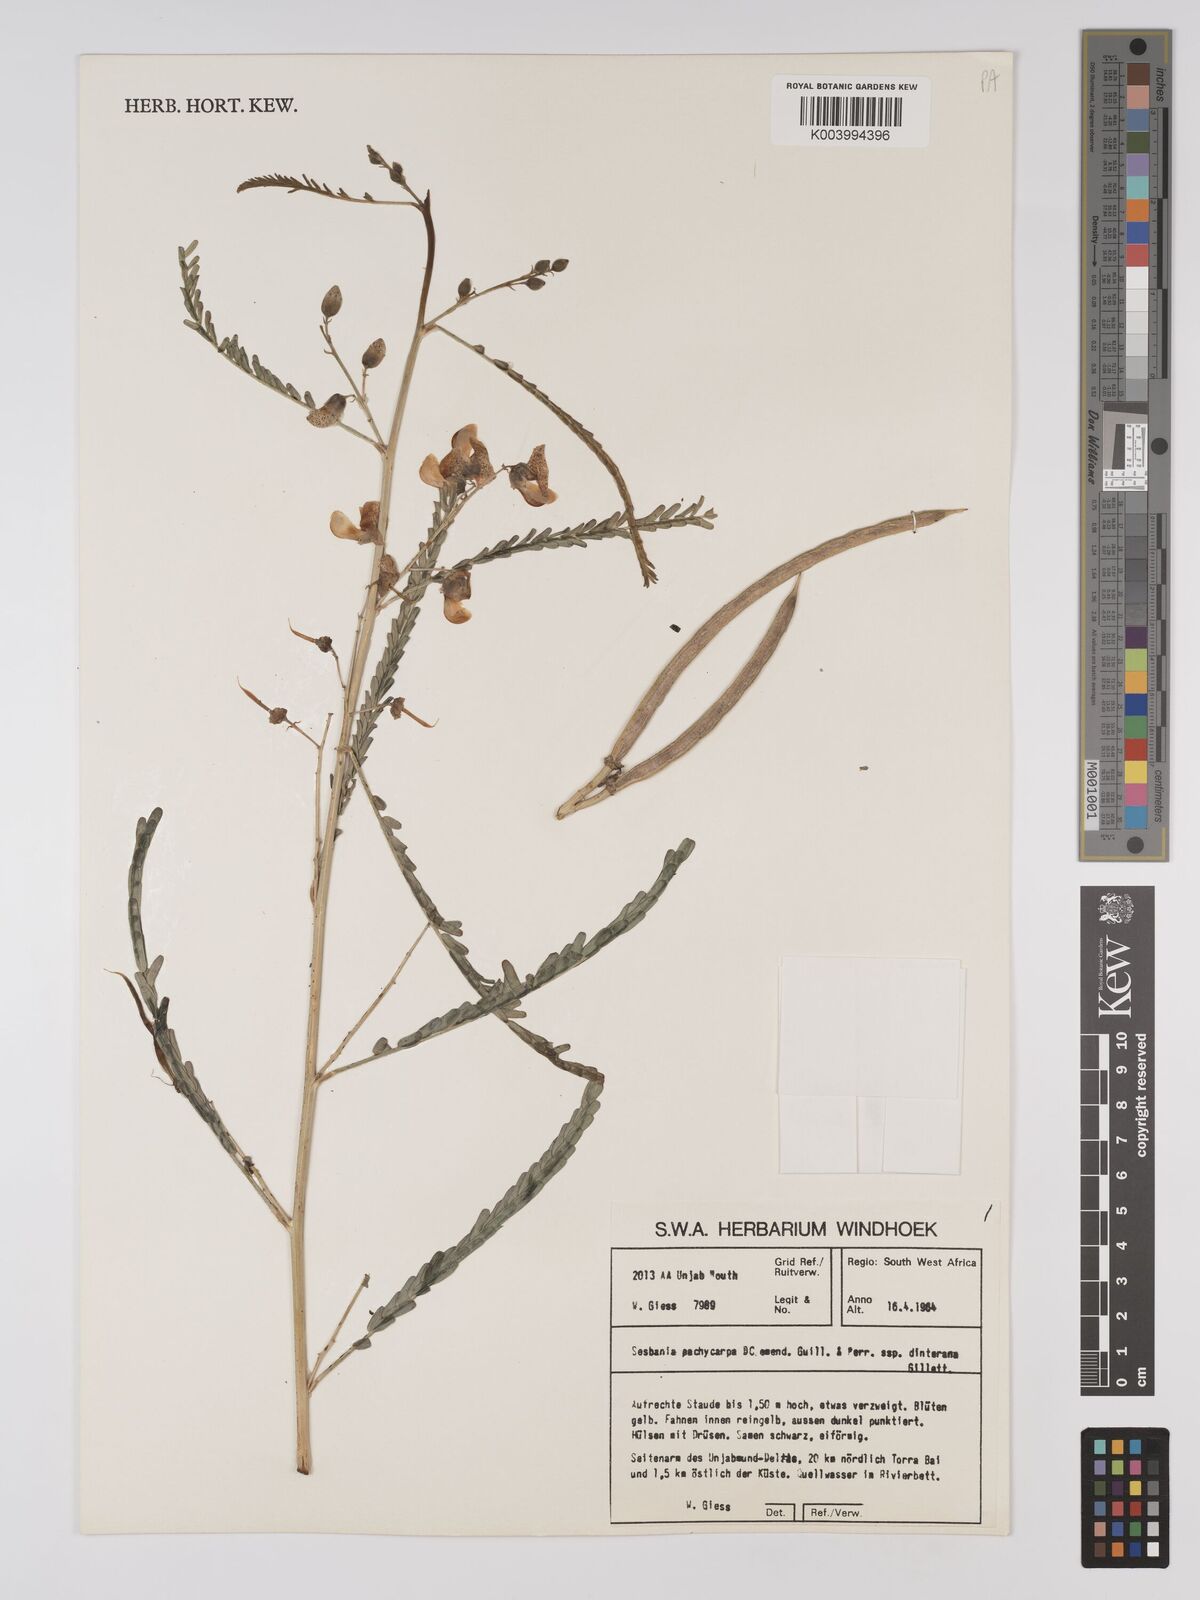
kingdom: Plantae
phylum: Tracheophyta
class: Magnoliopsida
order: Fabales
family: Fabaceae
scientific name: Fabaceae
